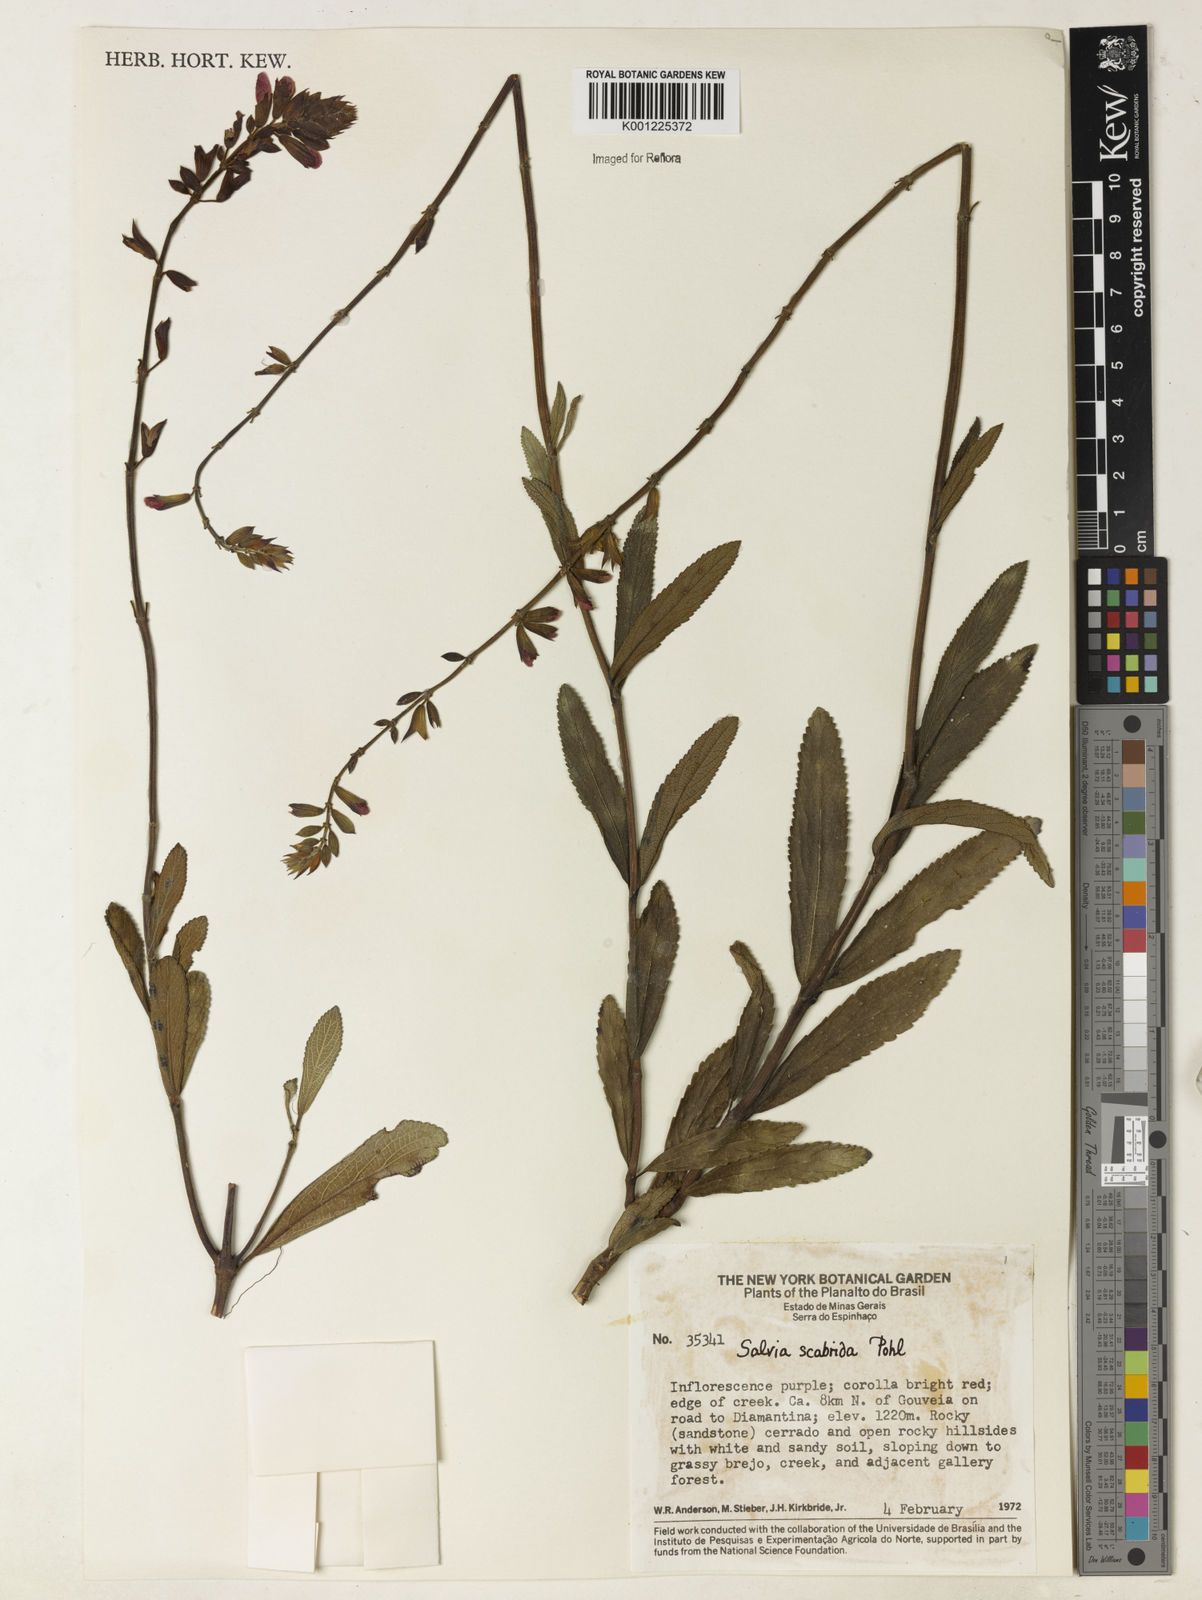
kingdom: Plantae
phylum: Tracheophyta
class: Magnoliopsida
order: Lamiales
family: Lamiaceae
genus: Salvia
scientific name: Salvia scabrida
